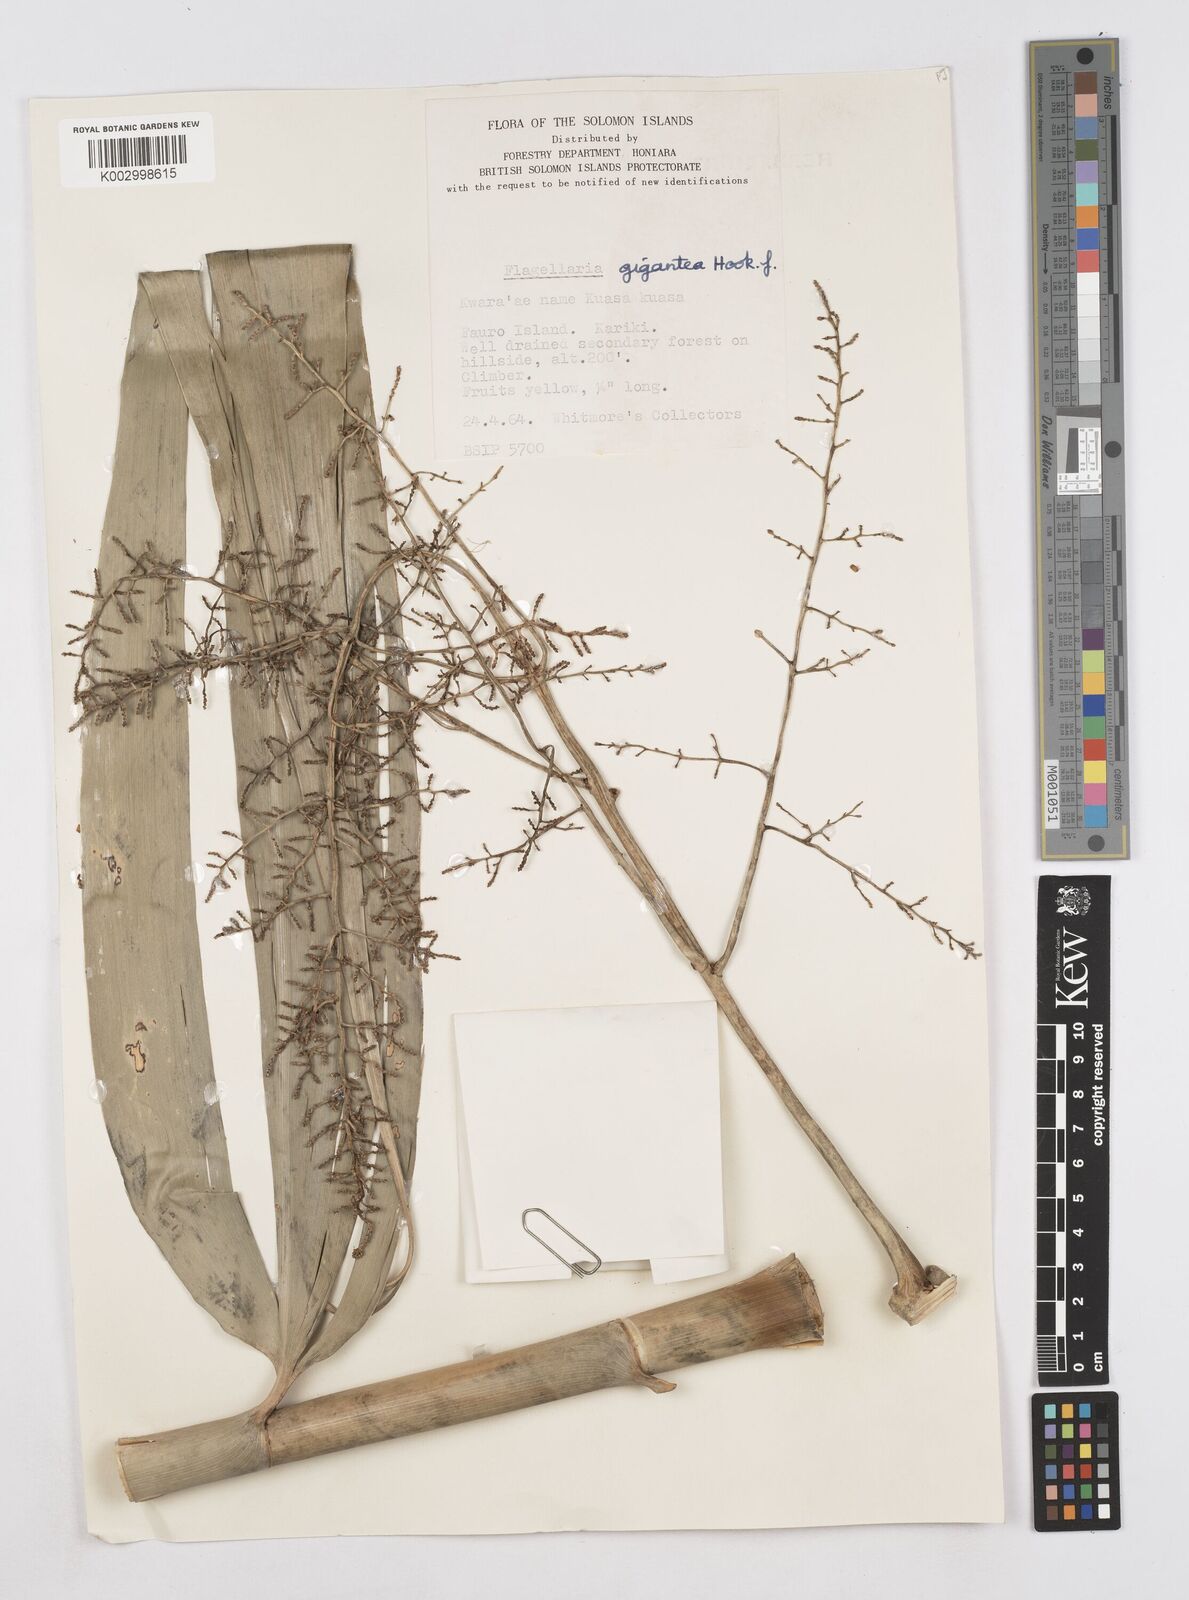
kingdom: Plantae
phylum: Tracheophyta
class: Liliopsida
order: Poales
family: Flagellariaceae
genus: Flagellaria
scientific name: Flagellaria gigantea
